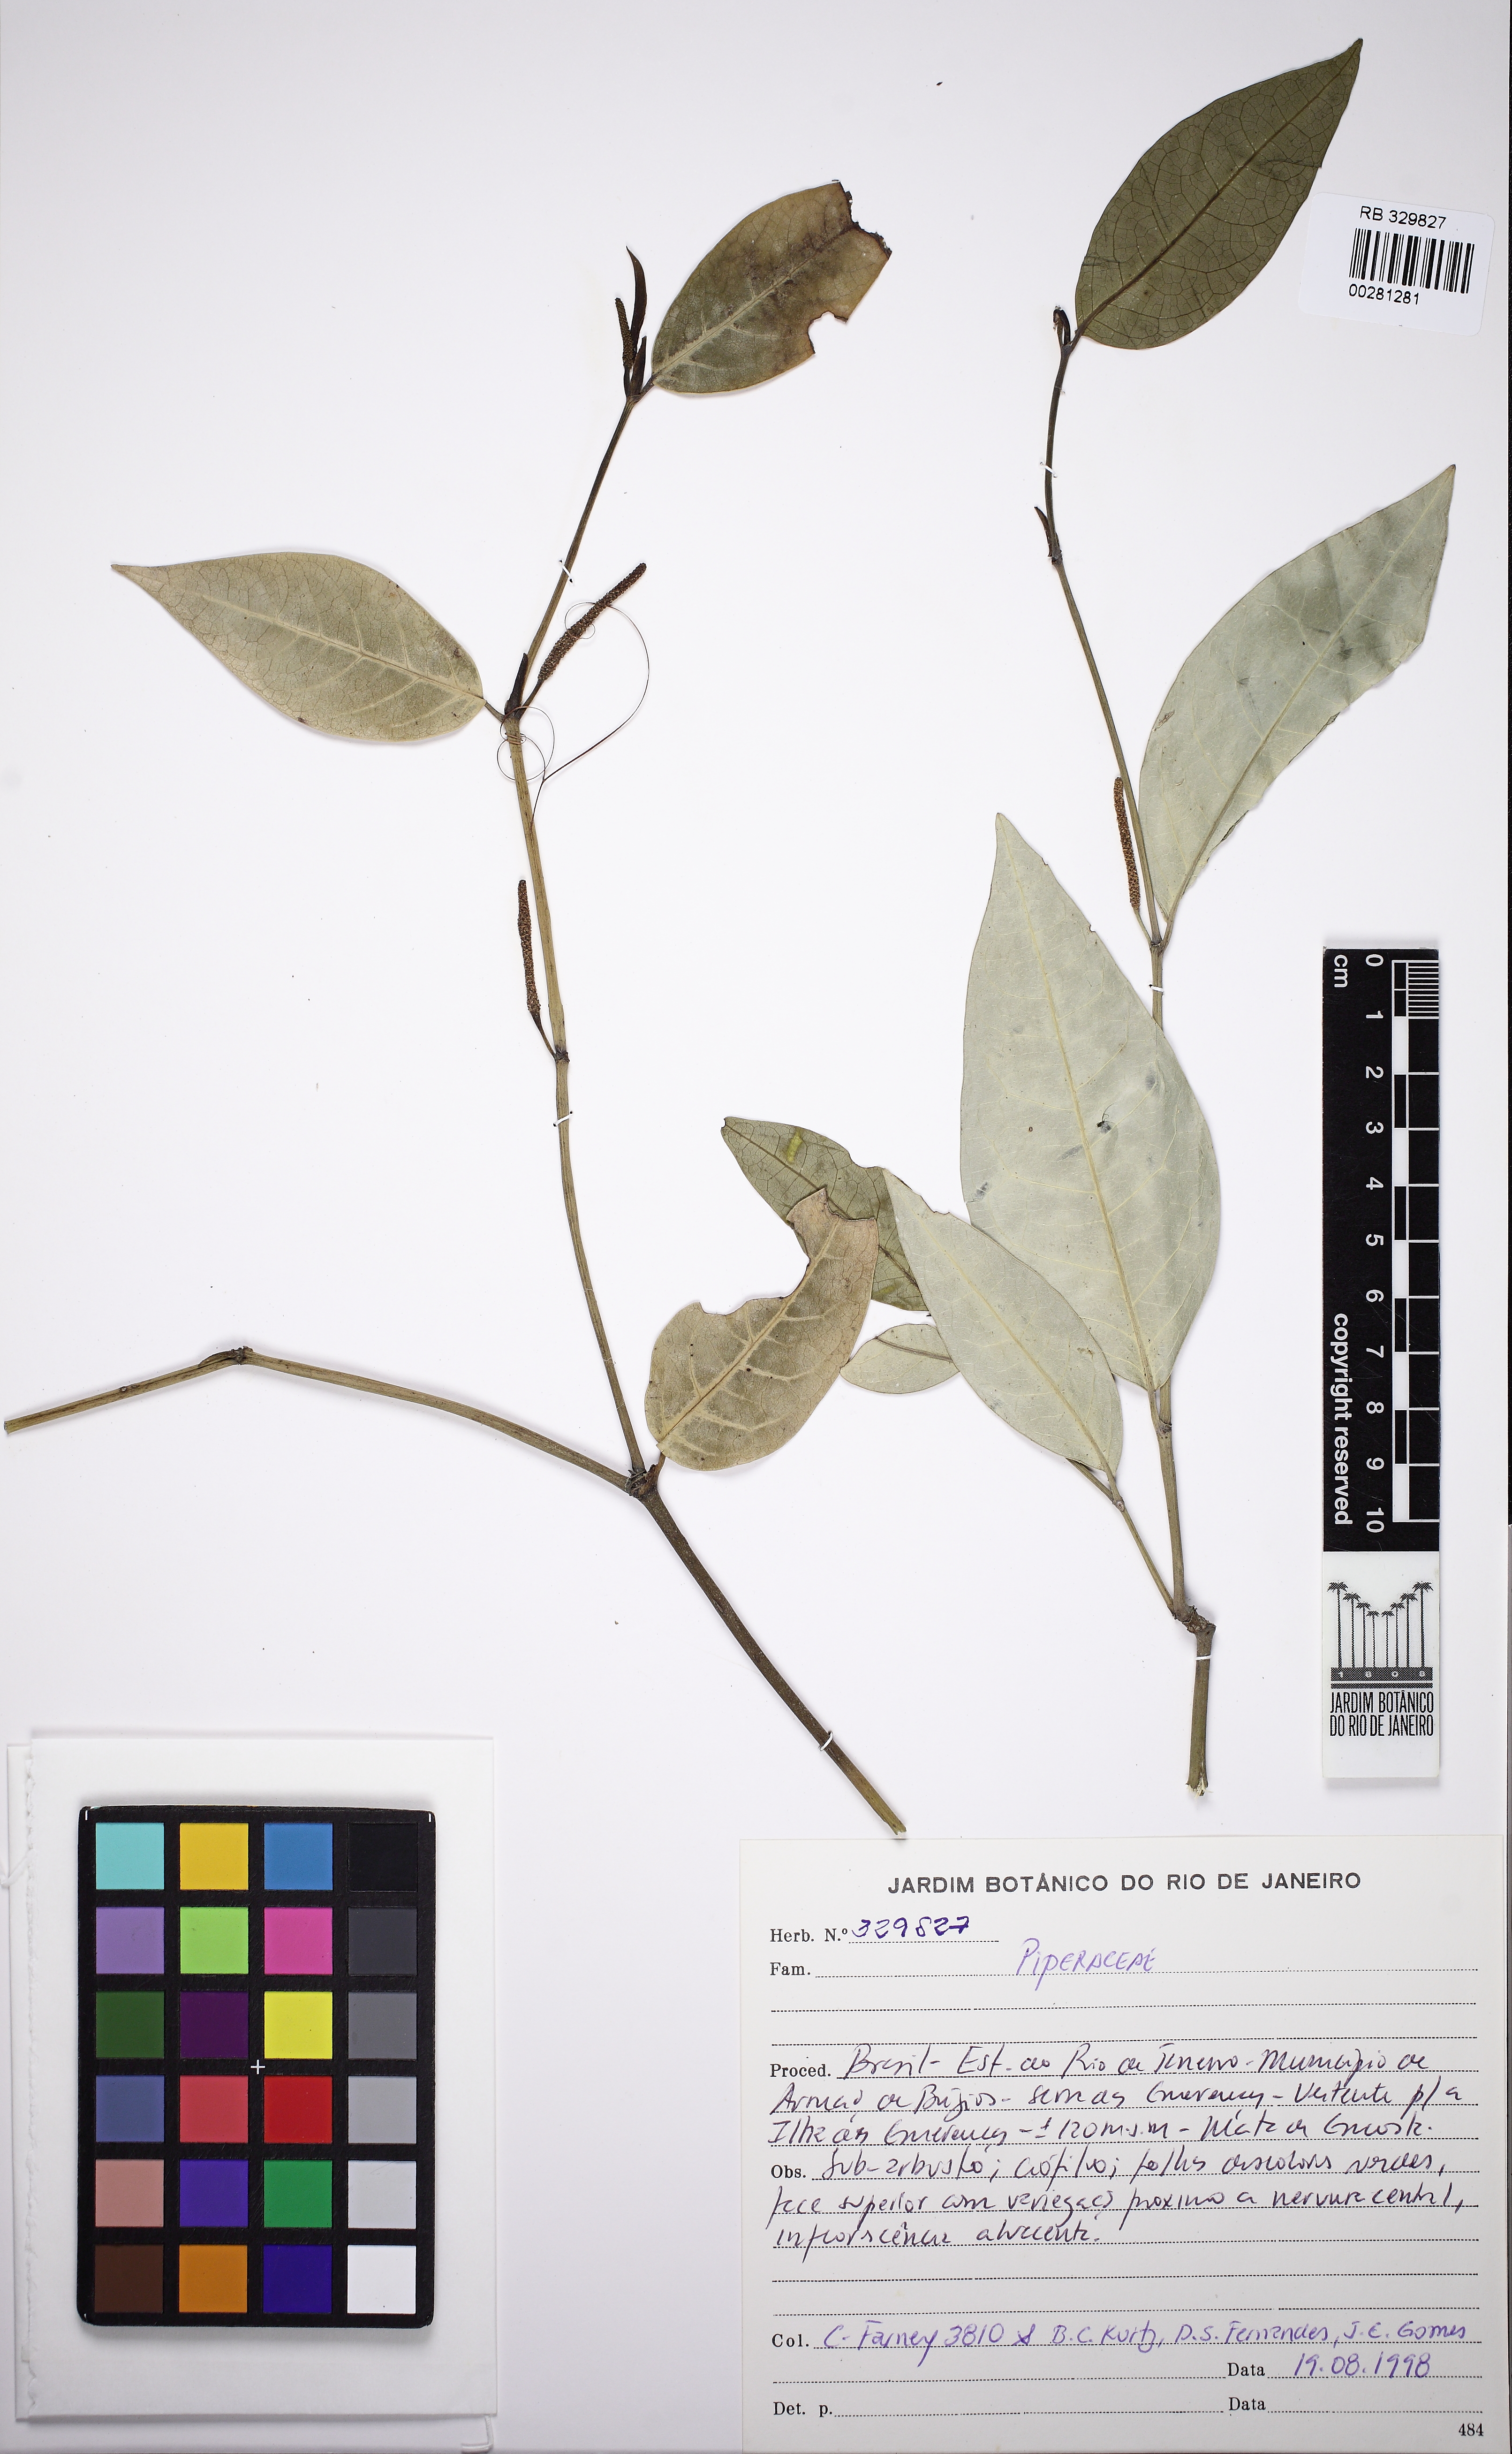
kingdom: Plantae
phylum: Tracheophyta
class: Magnoliopsida
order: Piperales
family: Piperaceae
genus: Piper
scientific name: Piper
